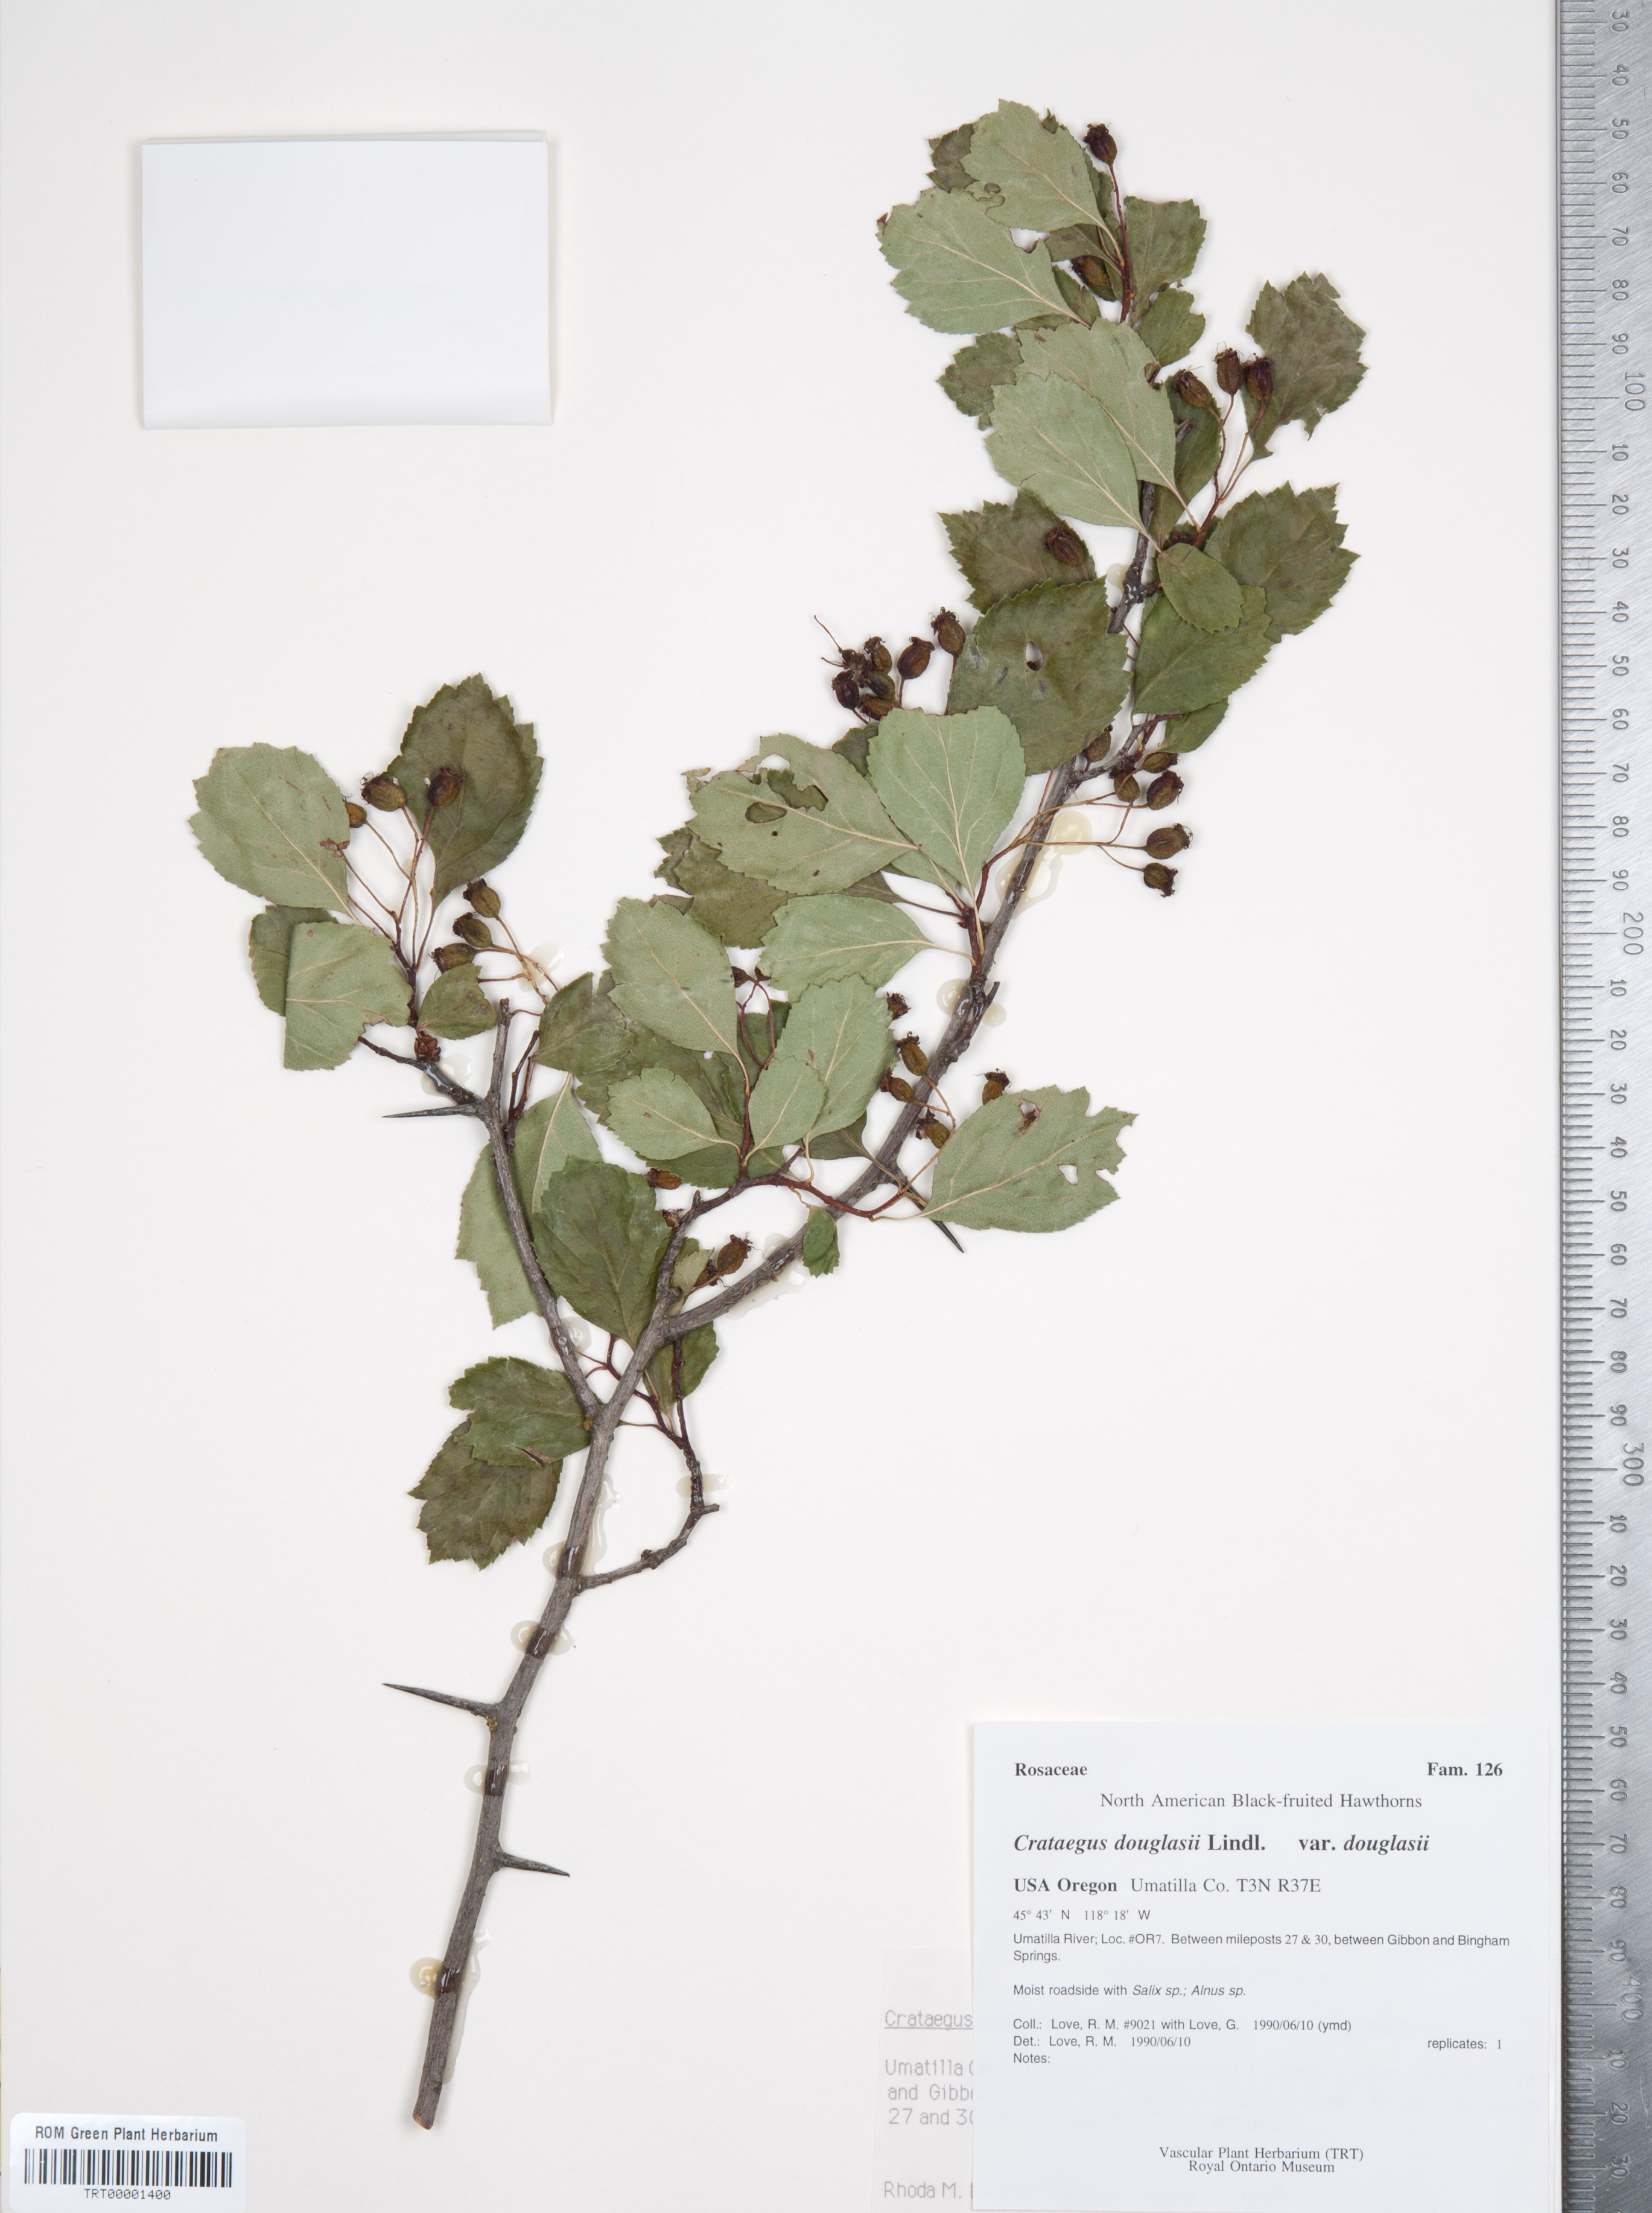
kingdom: Plantae
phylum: Tracheophyta
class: Magnoliopsida
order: Rosales
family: Rosaceae
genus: Crataegus
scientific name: Crataegus douglasii
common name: Black hawthorn
